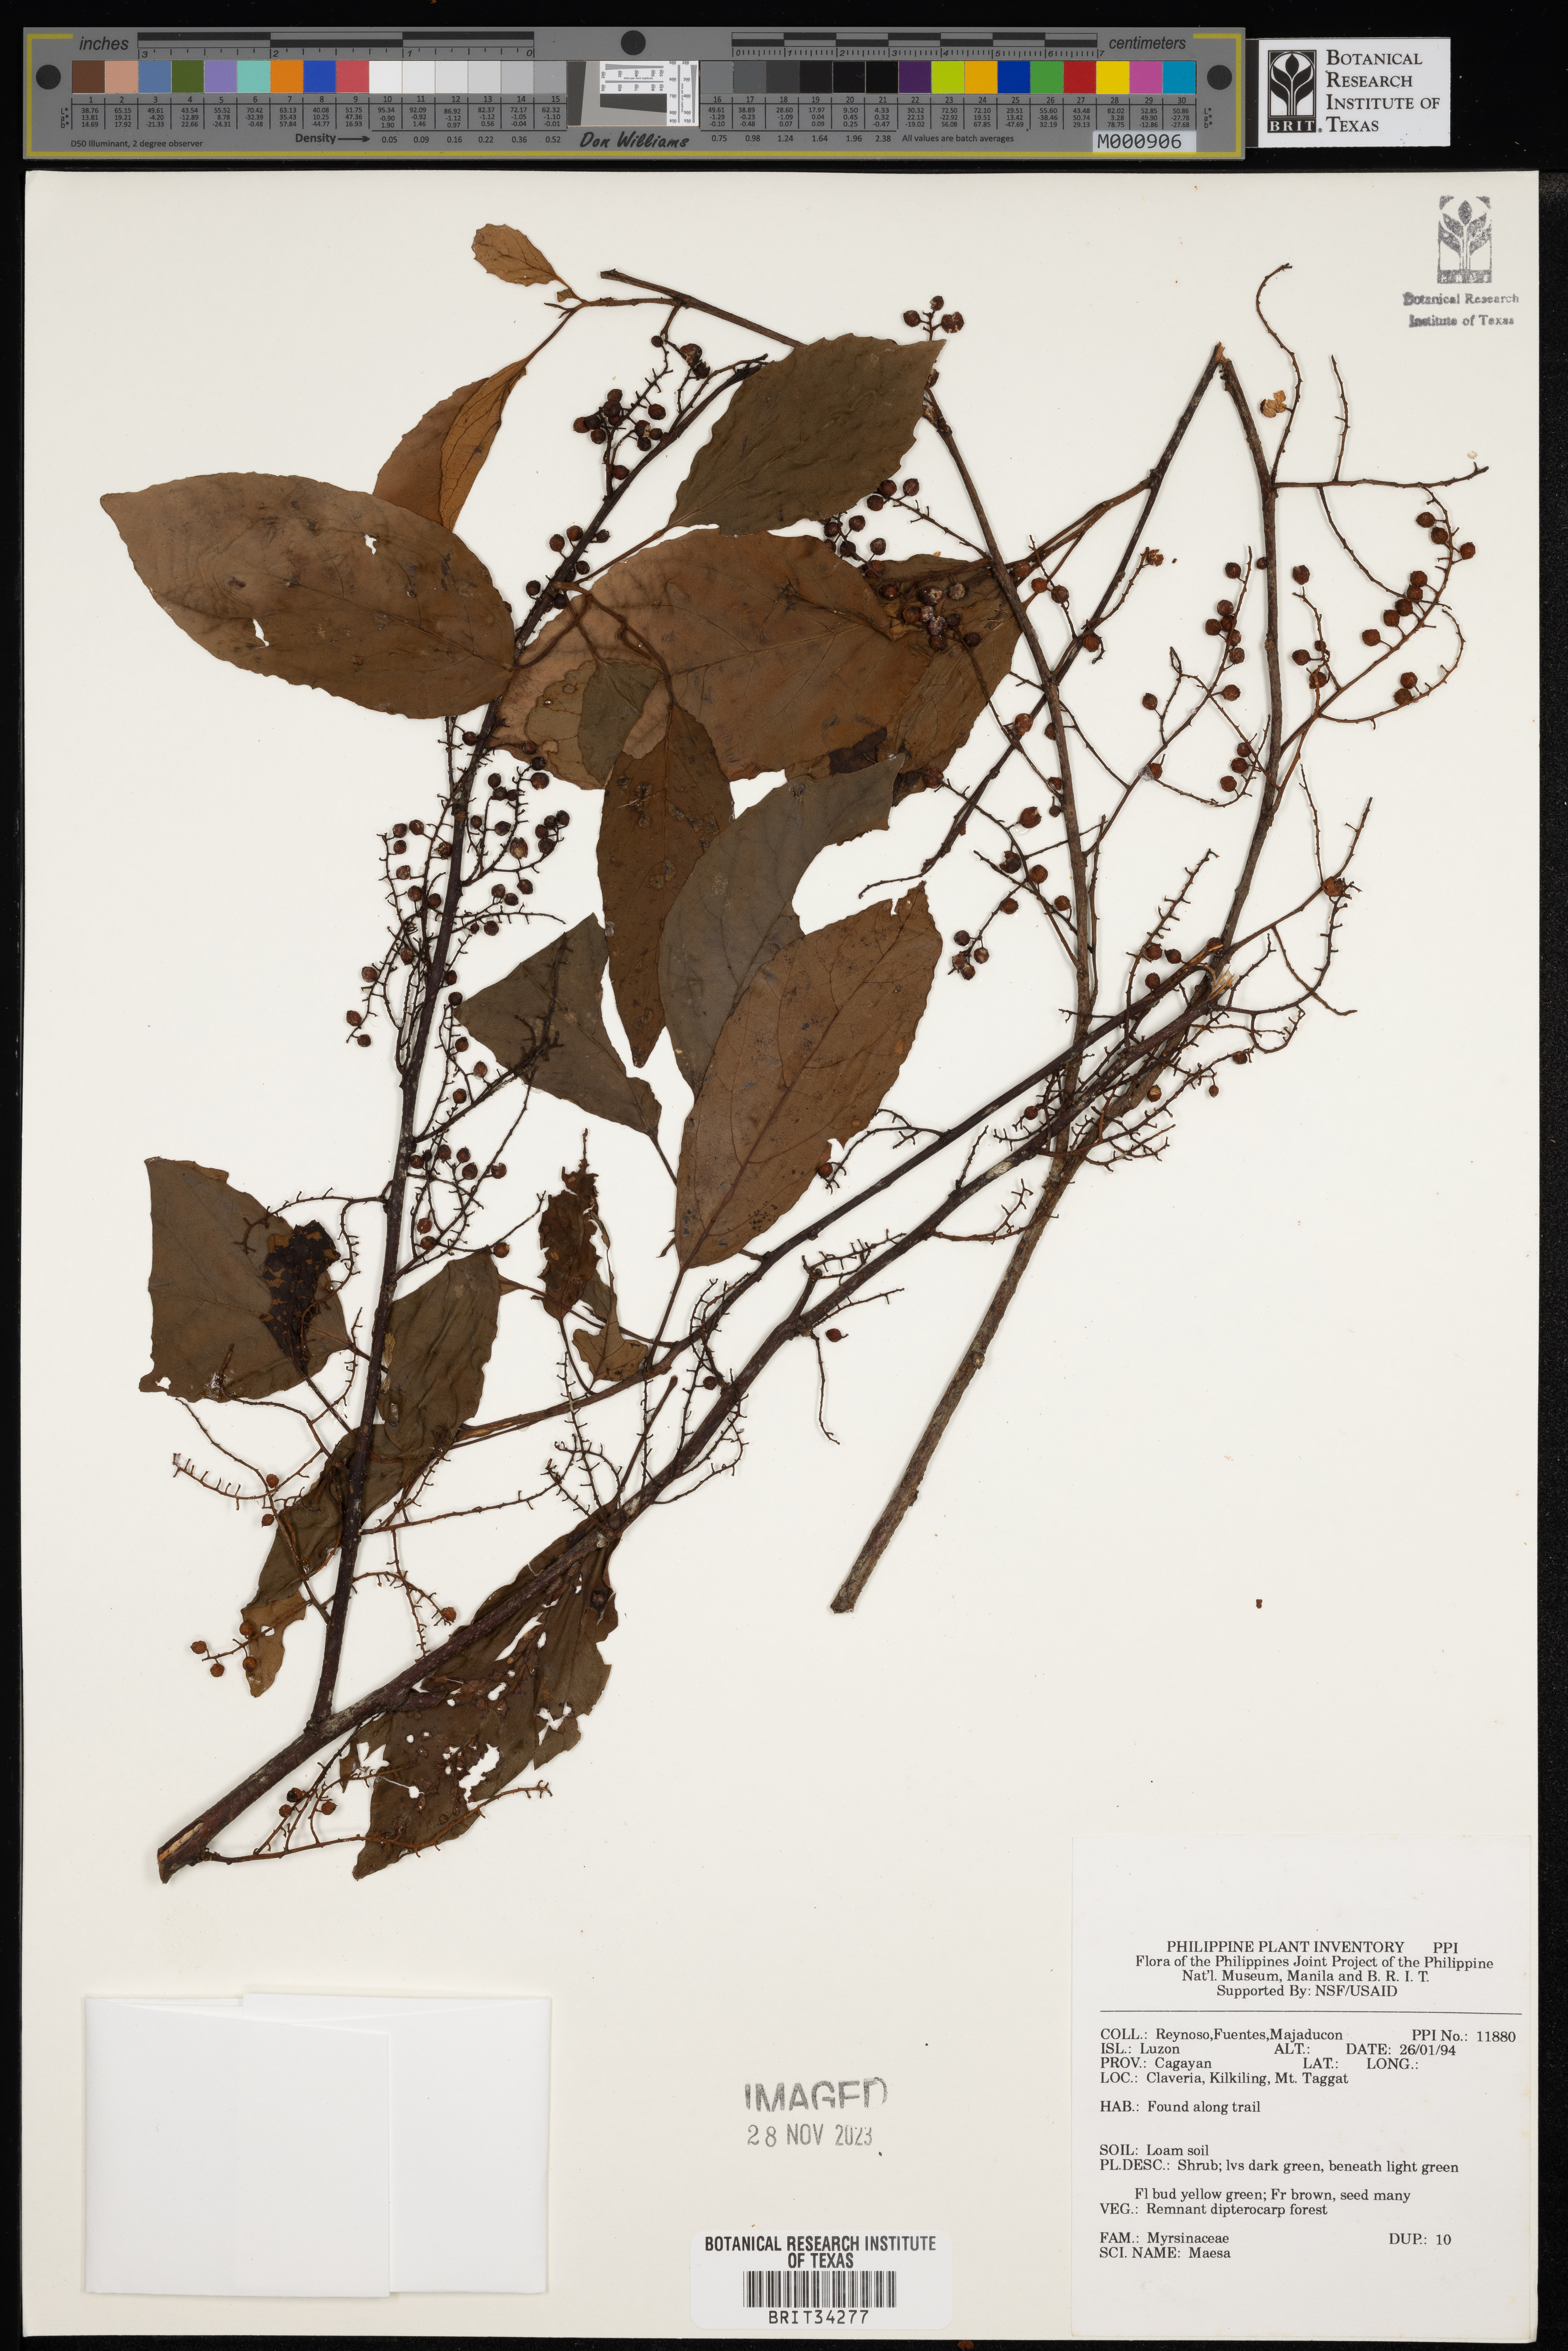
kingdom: Plantae
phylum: Tracheophyta
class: Magnoliopsida
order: Ericales
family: Primulaceae
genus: Maesa
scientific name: Maesa
